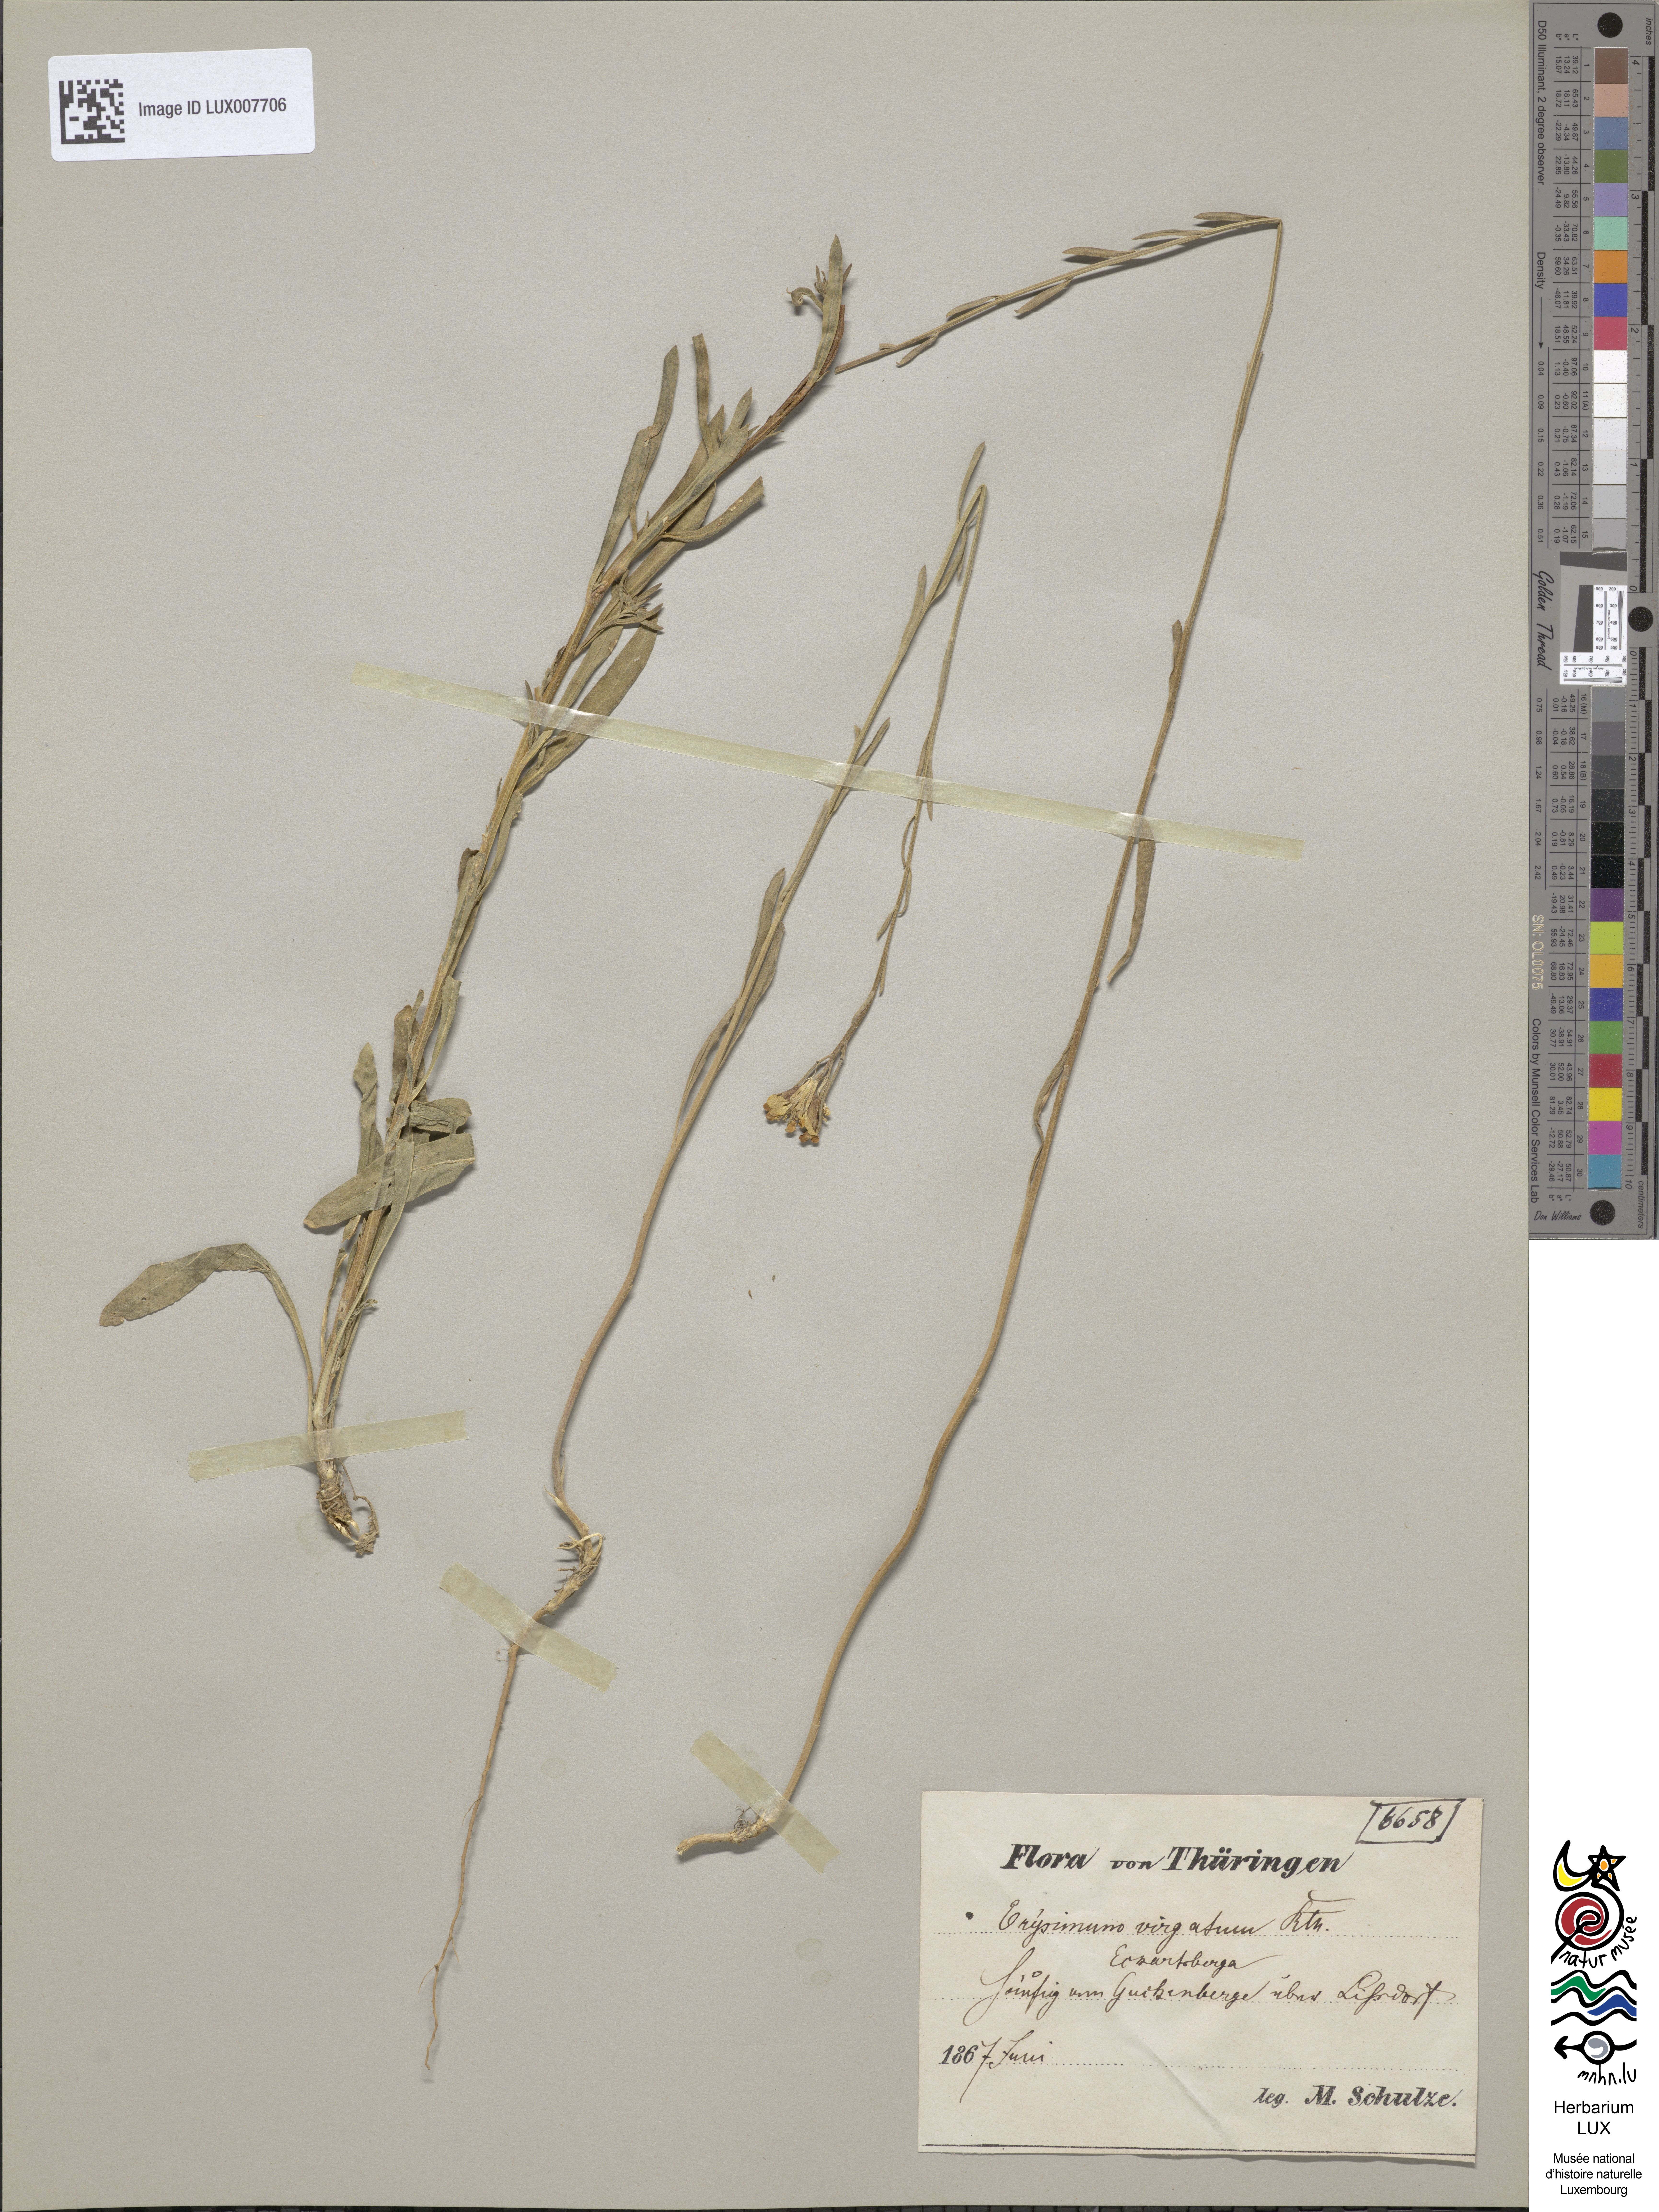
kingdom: Plantae
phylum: Tracheophyta
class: Magnoliopsida
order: Brassicales
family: Brassicaceae
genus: Erysimum
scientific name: Erysimum hieraciifolium
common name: European wallflower
